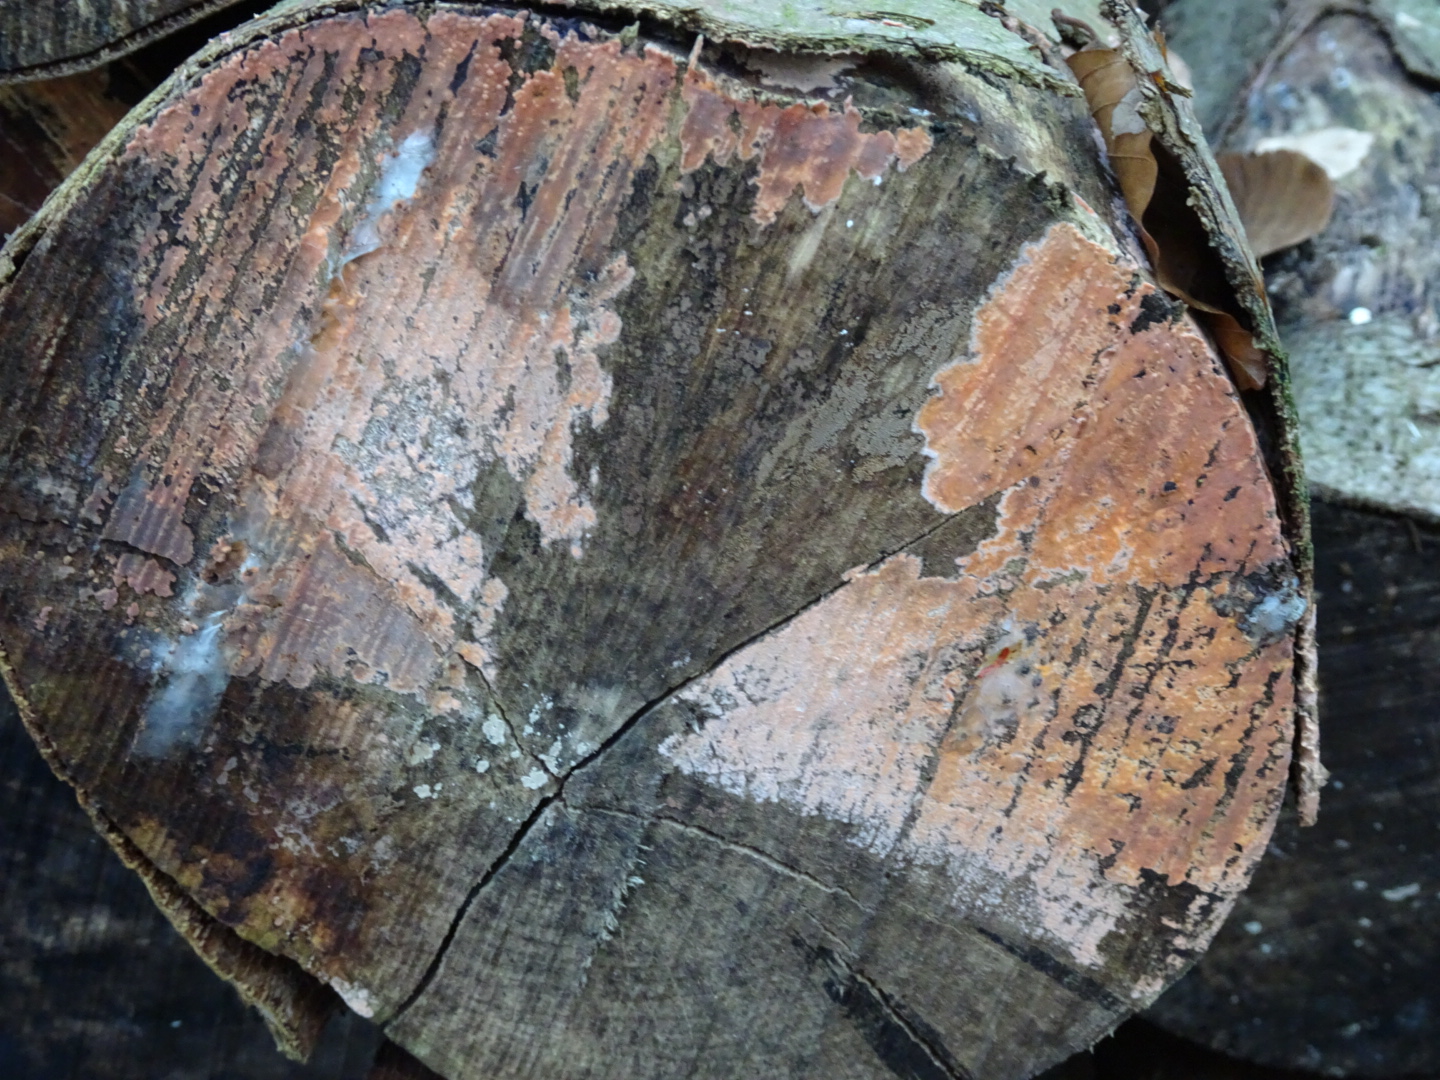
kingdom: Fungi
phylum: Basidiomycota
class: Agaricomycetes
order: Russulales
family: Peniophoraceae
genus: Peniophora
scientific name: Peniophora incarnata
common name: laksefarvet voksskind
